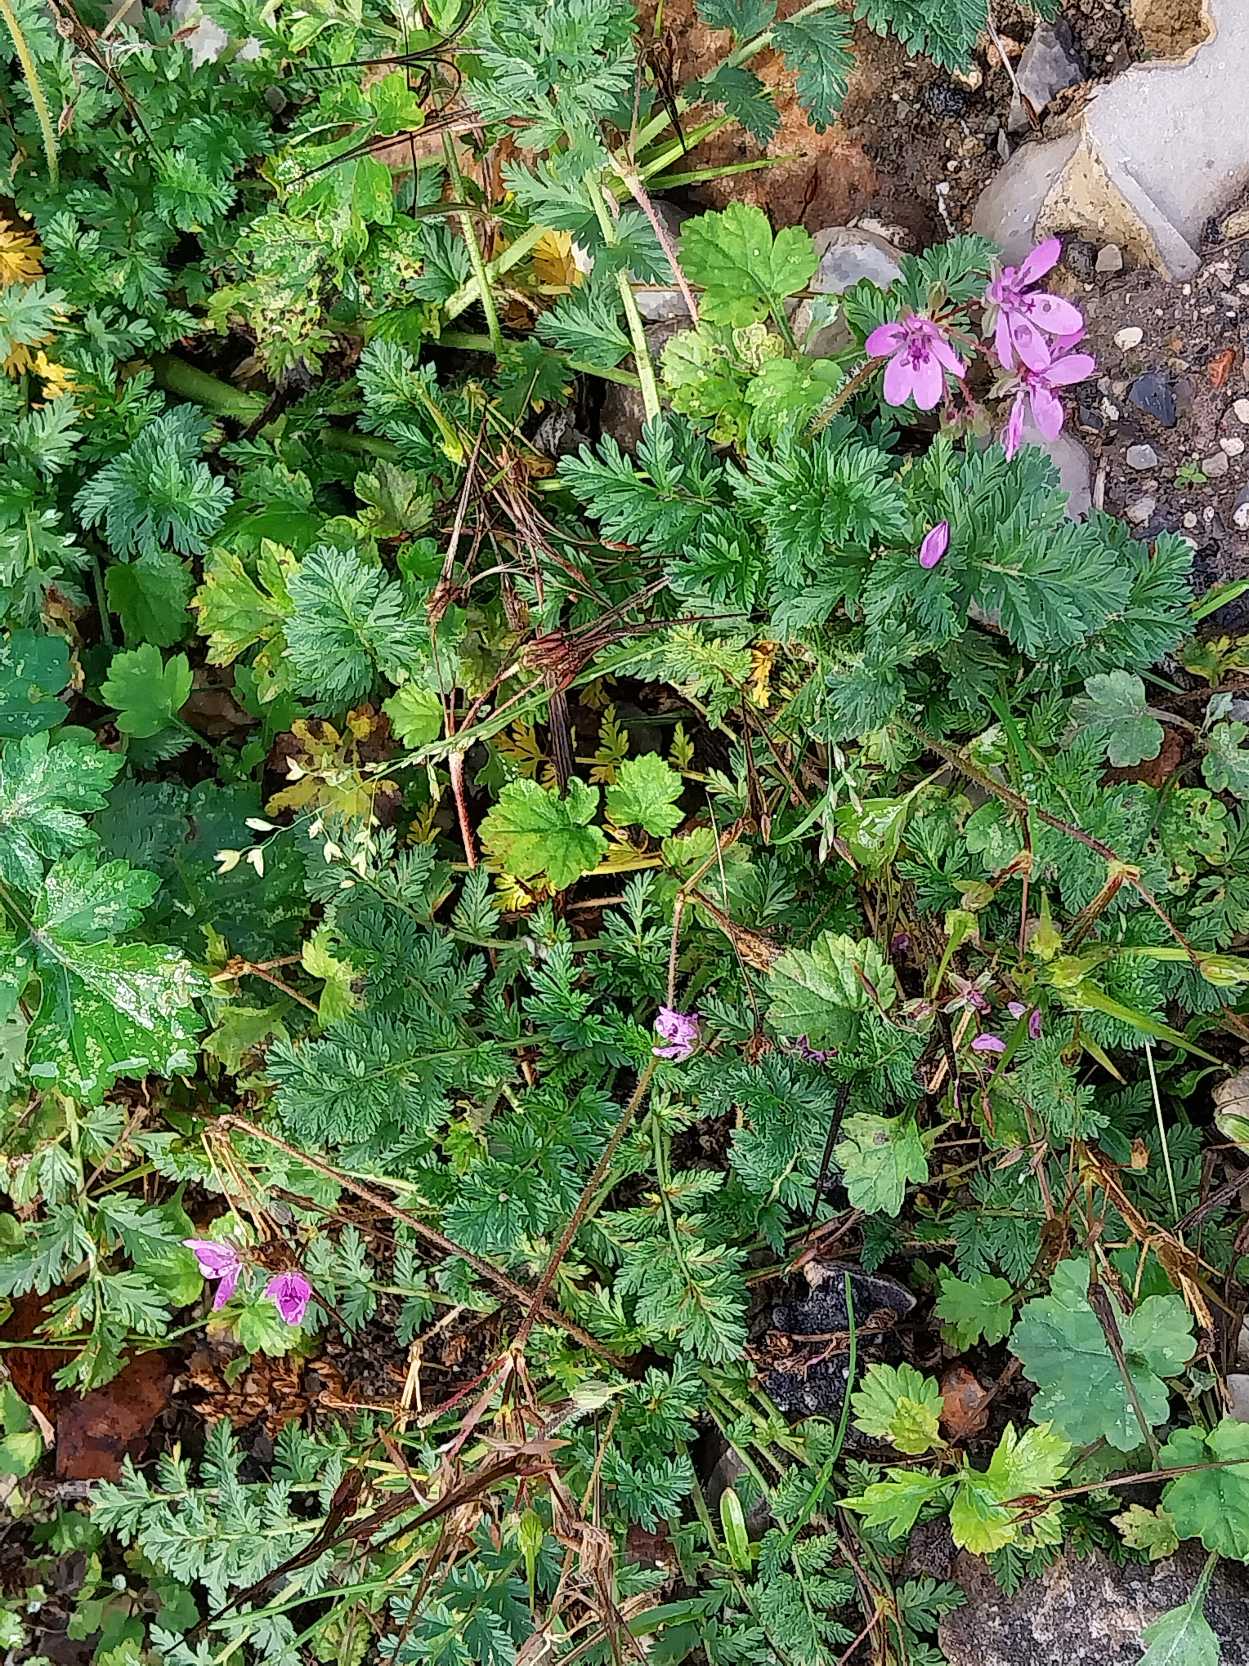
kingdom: Plantae
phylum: Tracheophyta
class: Magnoliopsida
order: Geraniales
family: Geraniaceae
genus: Erodium
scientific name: Erodium cicutarium
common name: Hejrenæb
